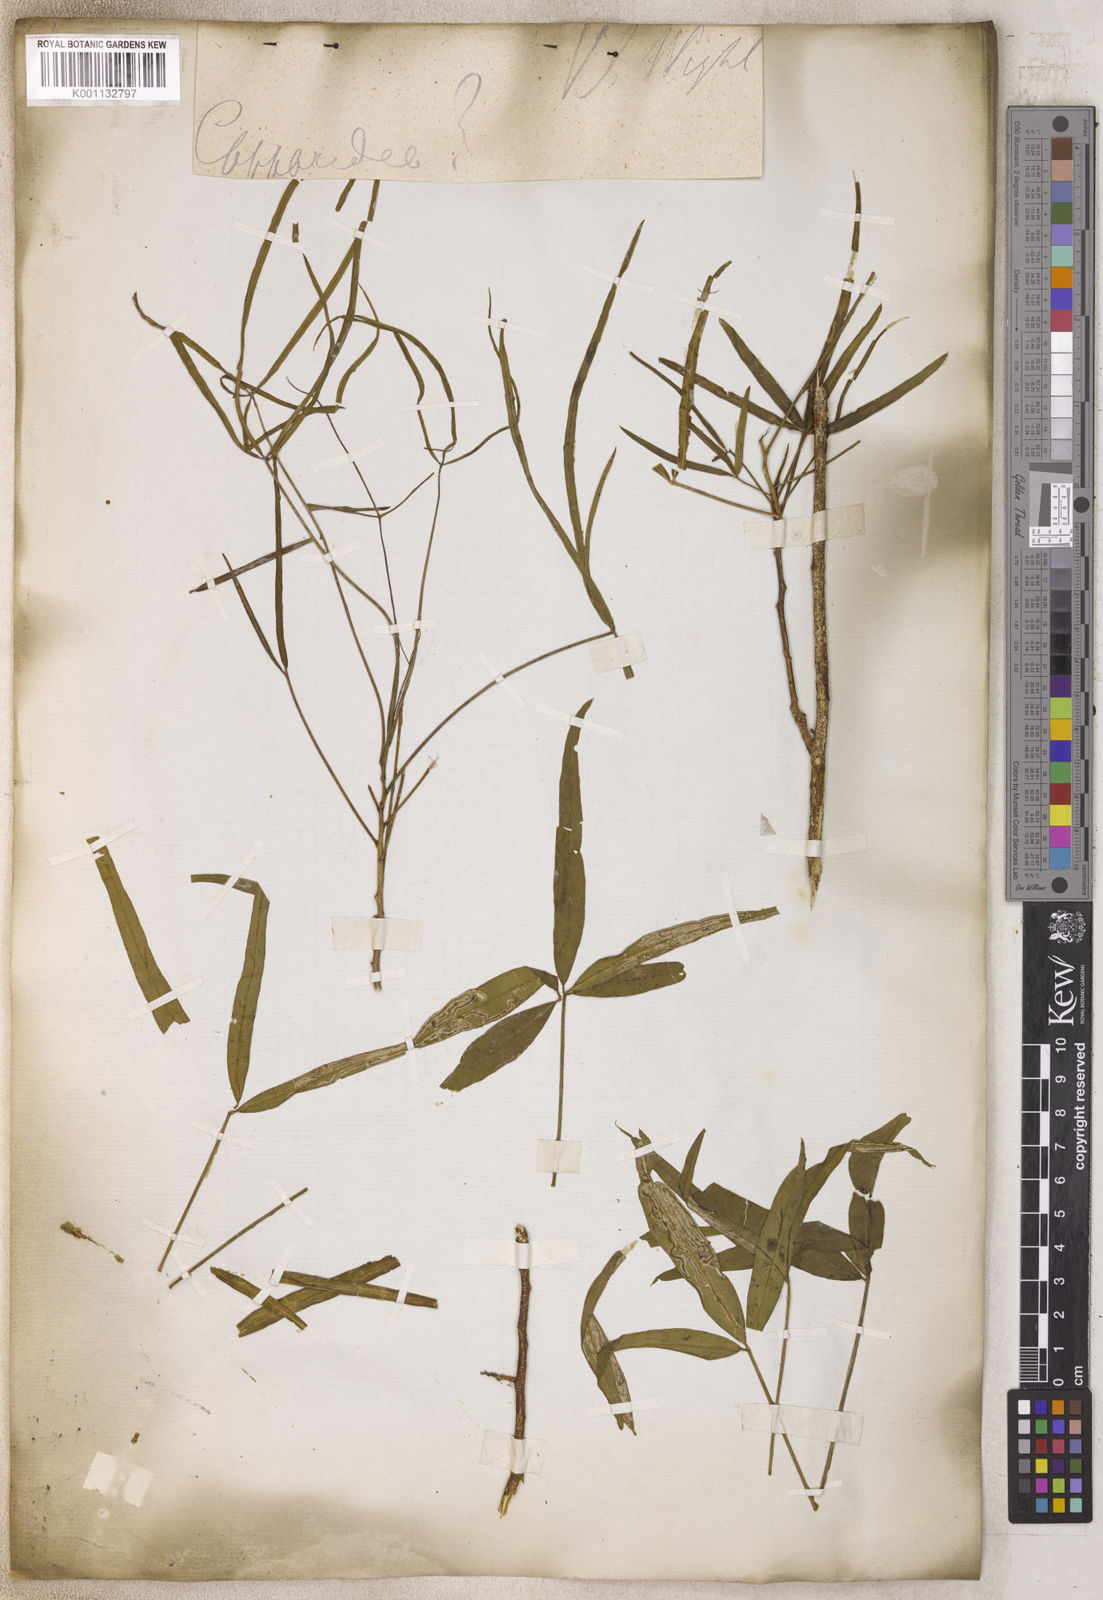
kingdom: Plantae
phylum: Tracheophyta
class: Magnoliopsida
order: Brassicales
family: Capparaceae
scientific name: Capparaceae
